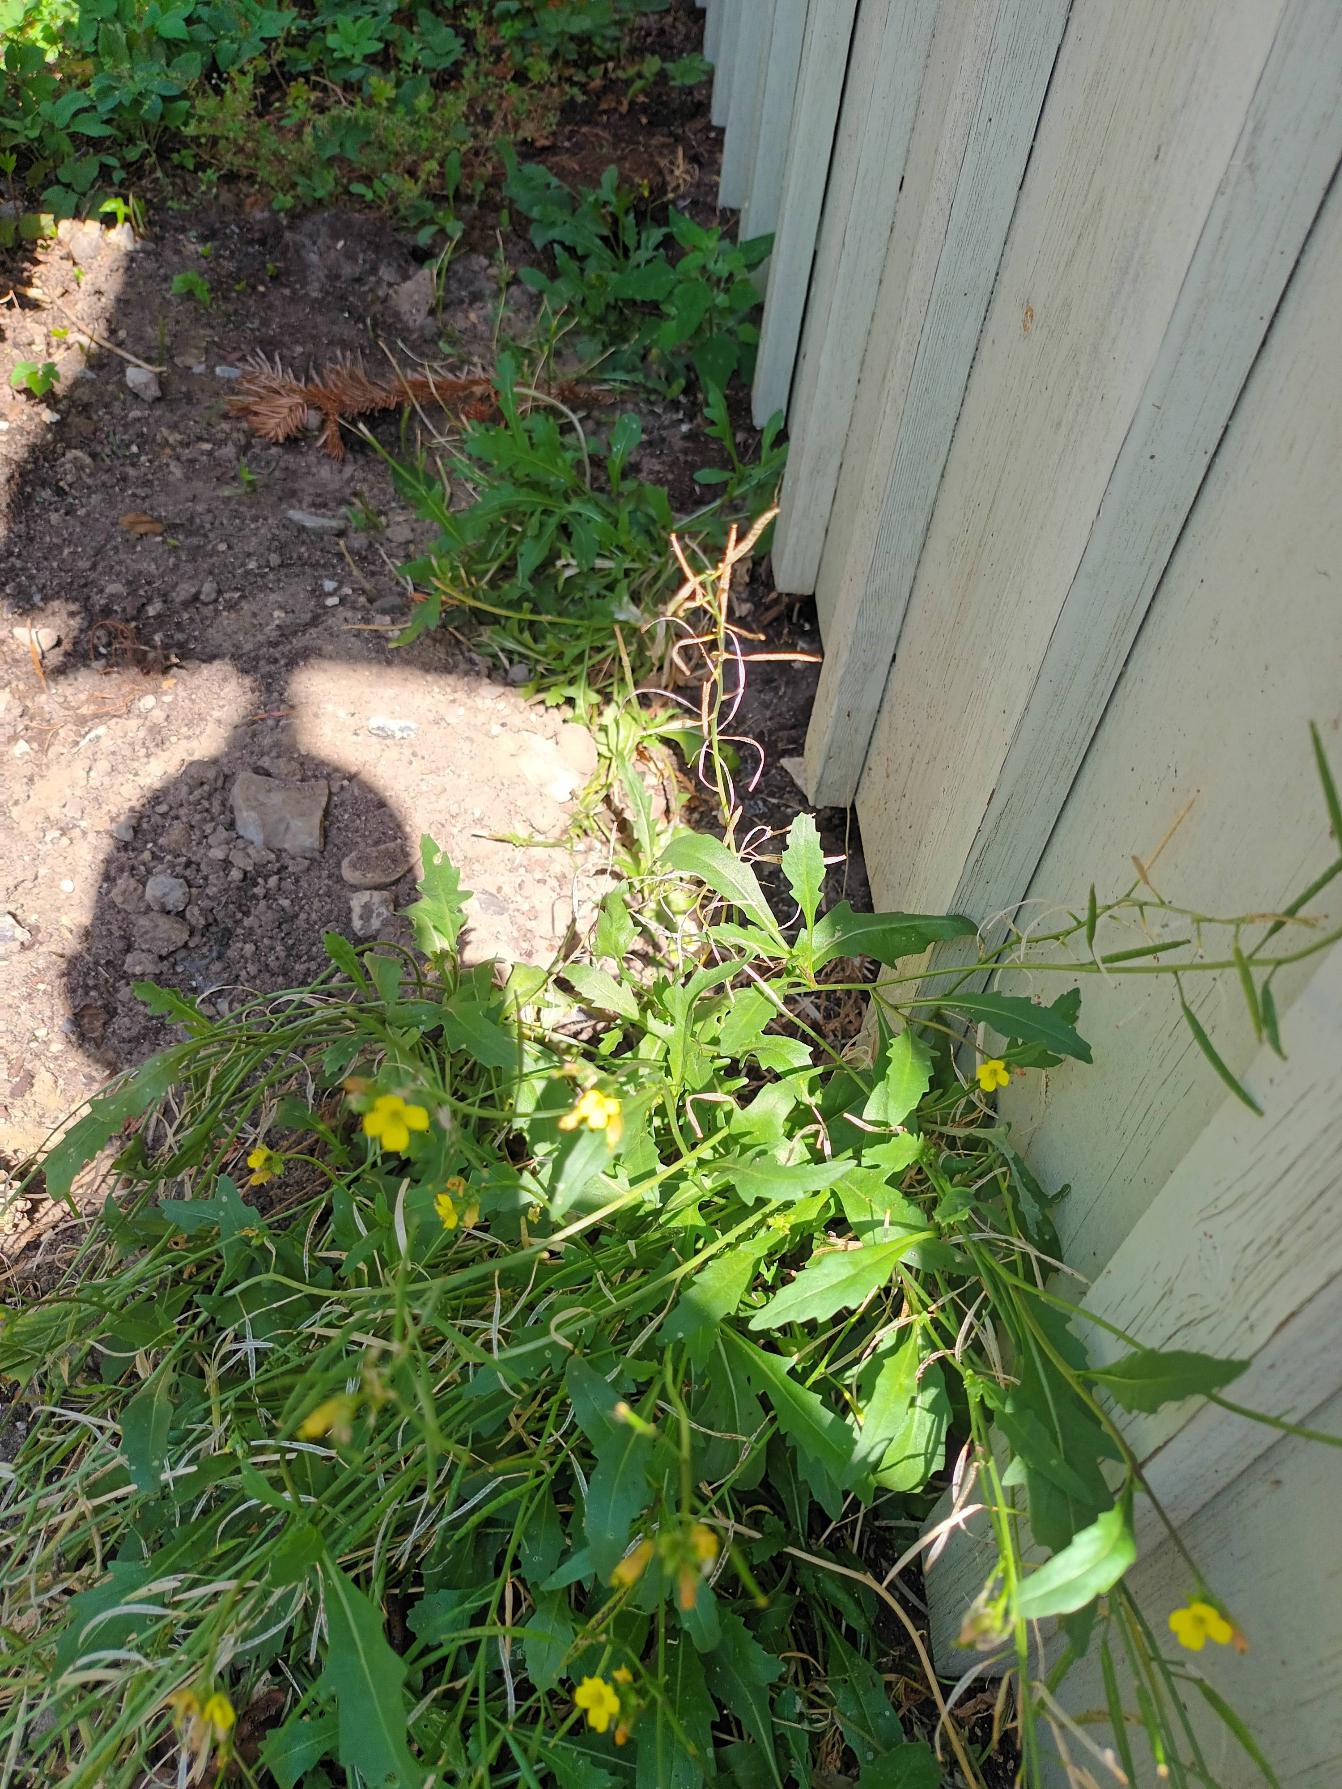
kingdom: Plantae
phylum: Tracheophyta
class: Magnoliopsida
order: Brassicales
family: Brassicaceae
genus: Diplotaxis
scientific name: Diplotaxis muralis
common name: Mursennep
